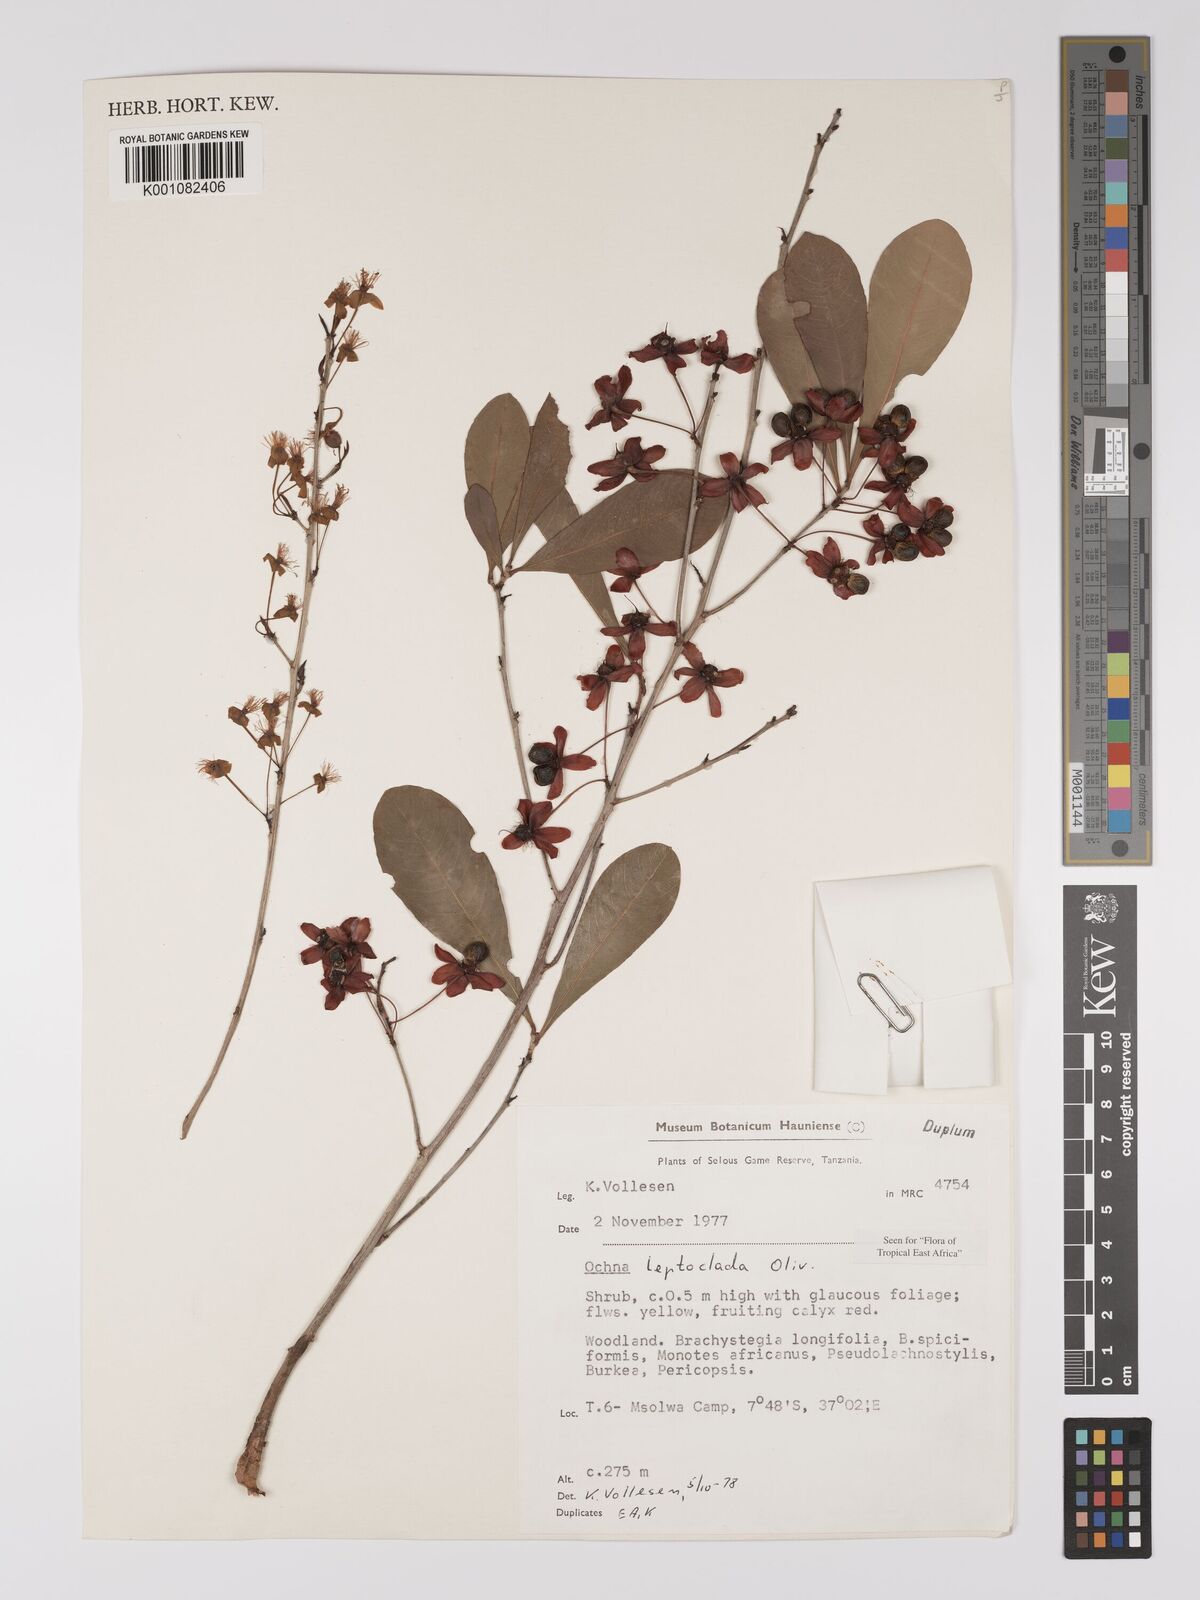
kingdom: Plantae
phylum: Tracheophyta
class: Magnoliopsida
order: Malpighiales
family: Ochnaceae
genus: Ochna
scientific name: Ochna leptoclada
